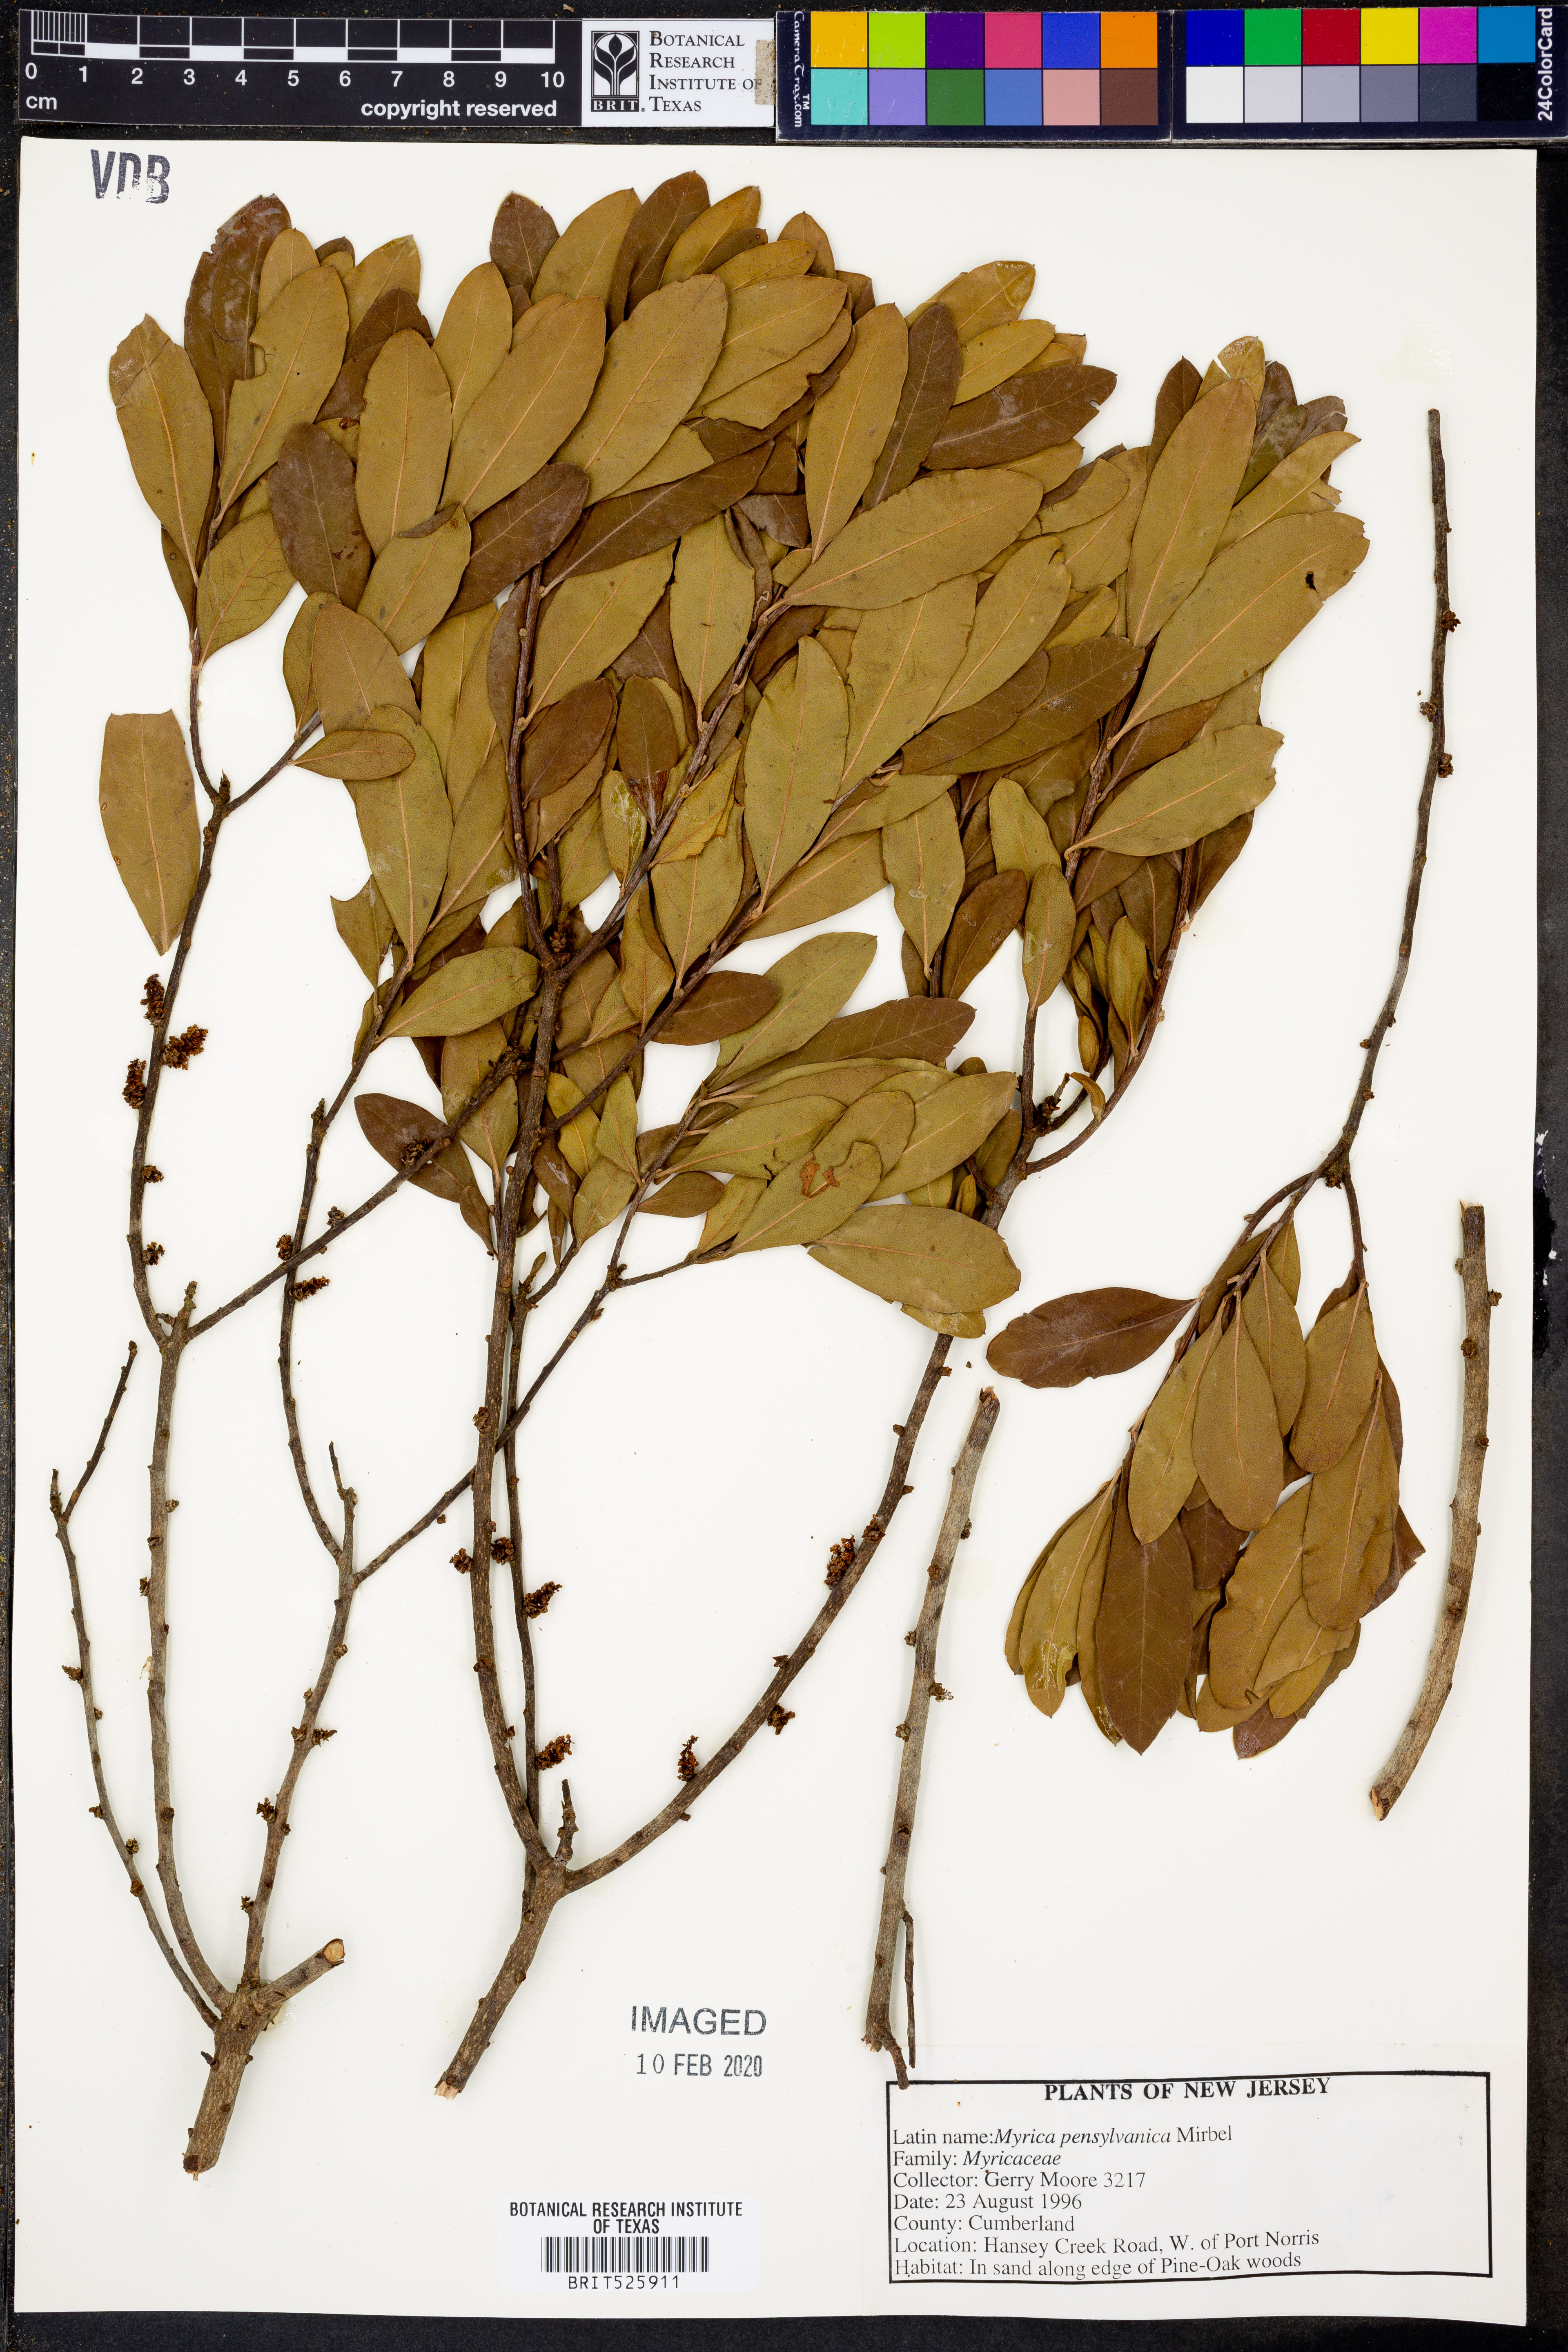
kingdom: Plantae
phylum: Tracheophyta
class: Magnoliopsida
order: Fagales
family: Myricaceae
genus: Morella
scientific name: Morella pensylvanica
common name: Northern bayberry
